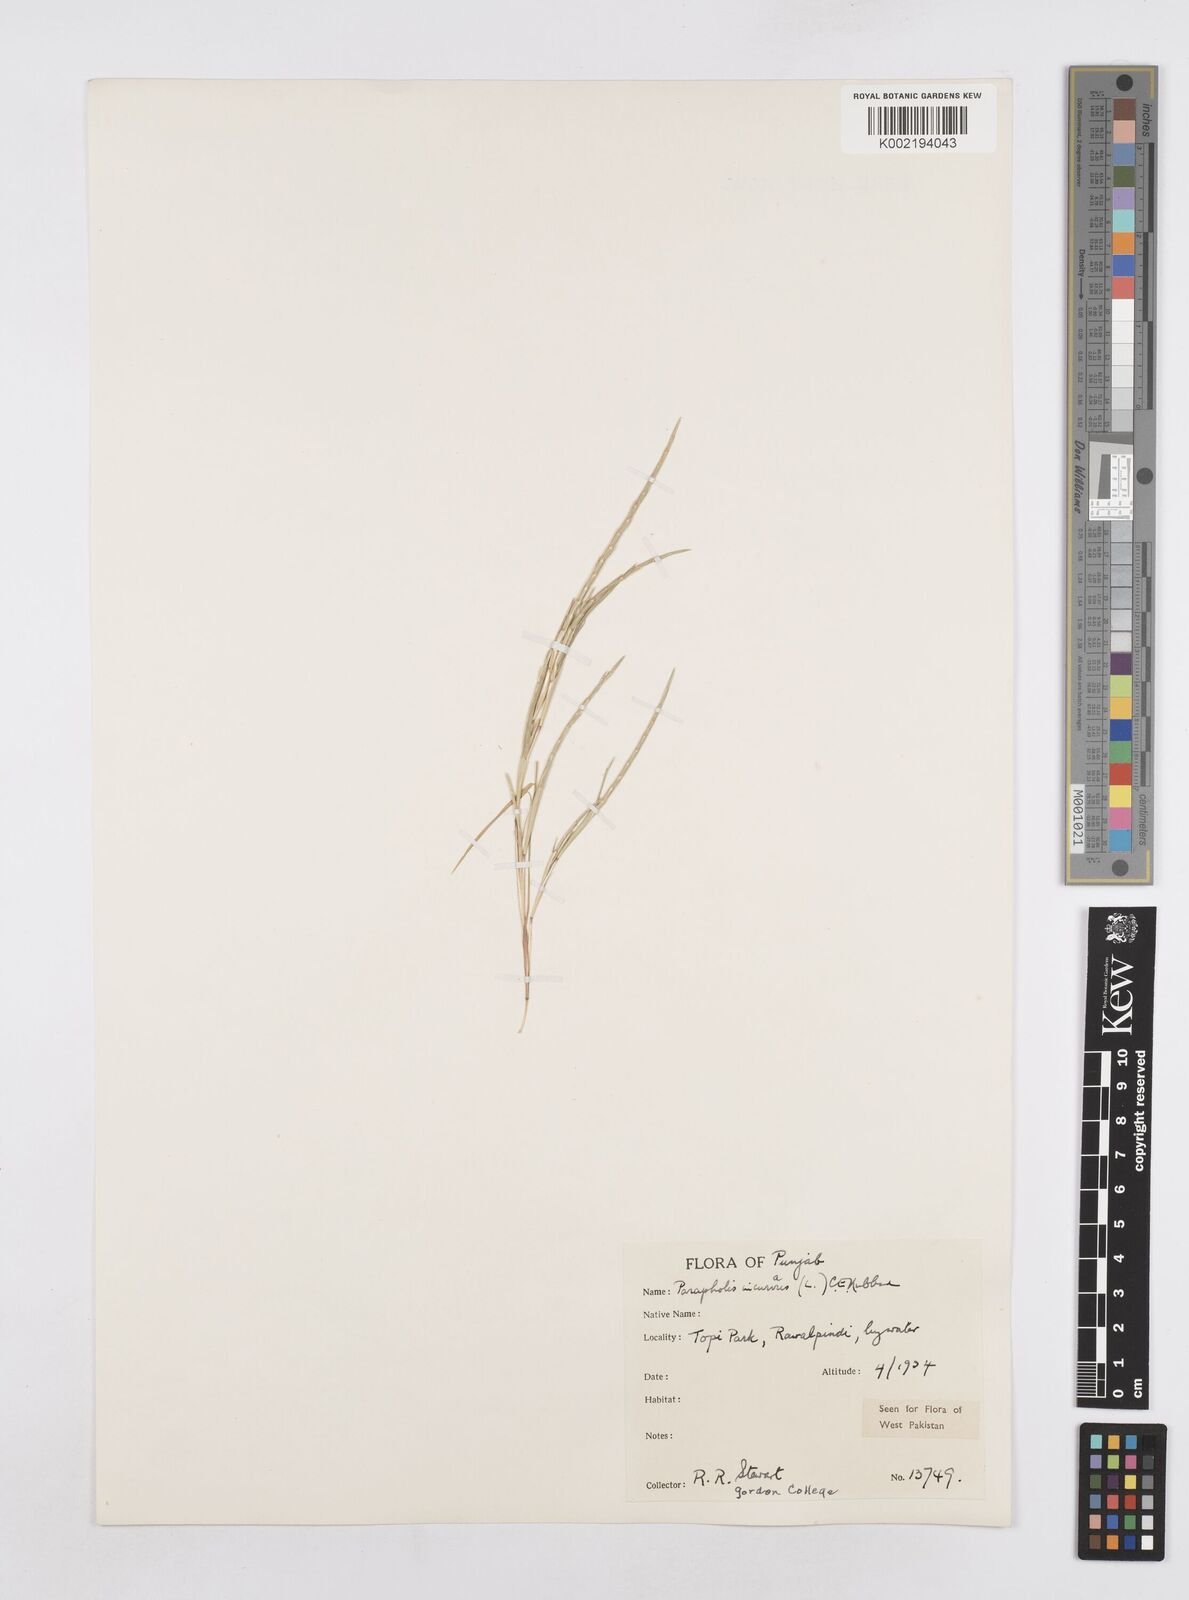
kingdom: Plantae
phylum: Tracheophyta
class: Liliopsida
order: Poales
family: Poaceae
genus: Parapholis
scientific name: Parapholis incurva
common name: Curved sicklegrass
